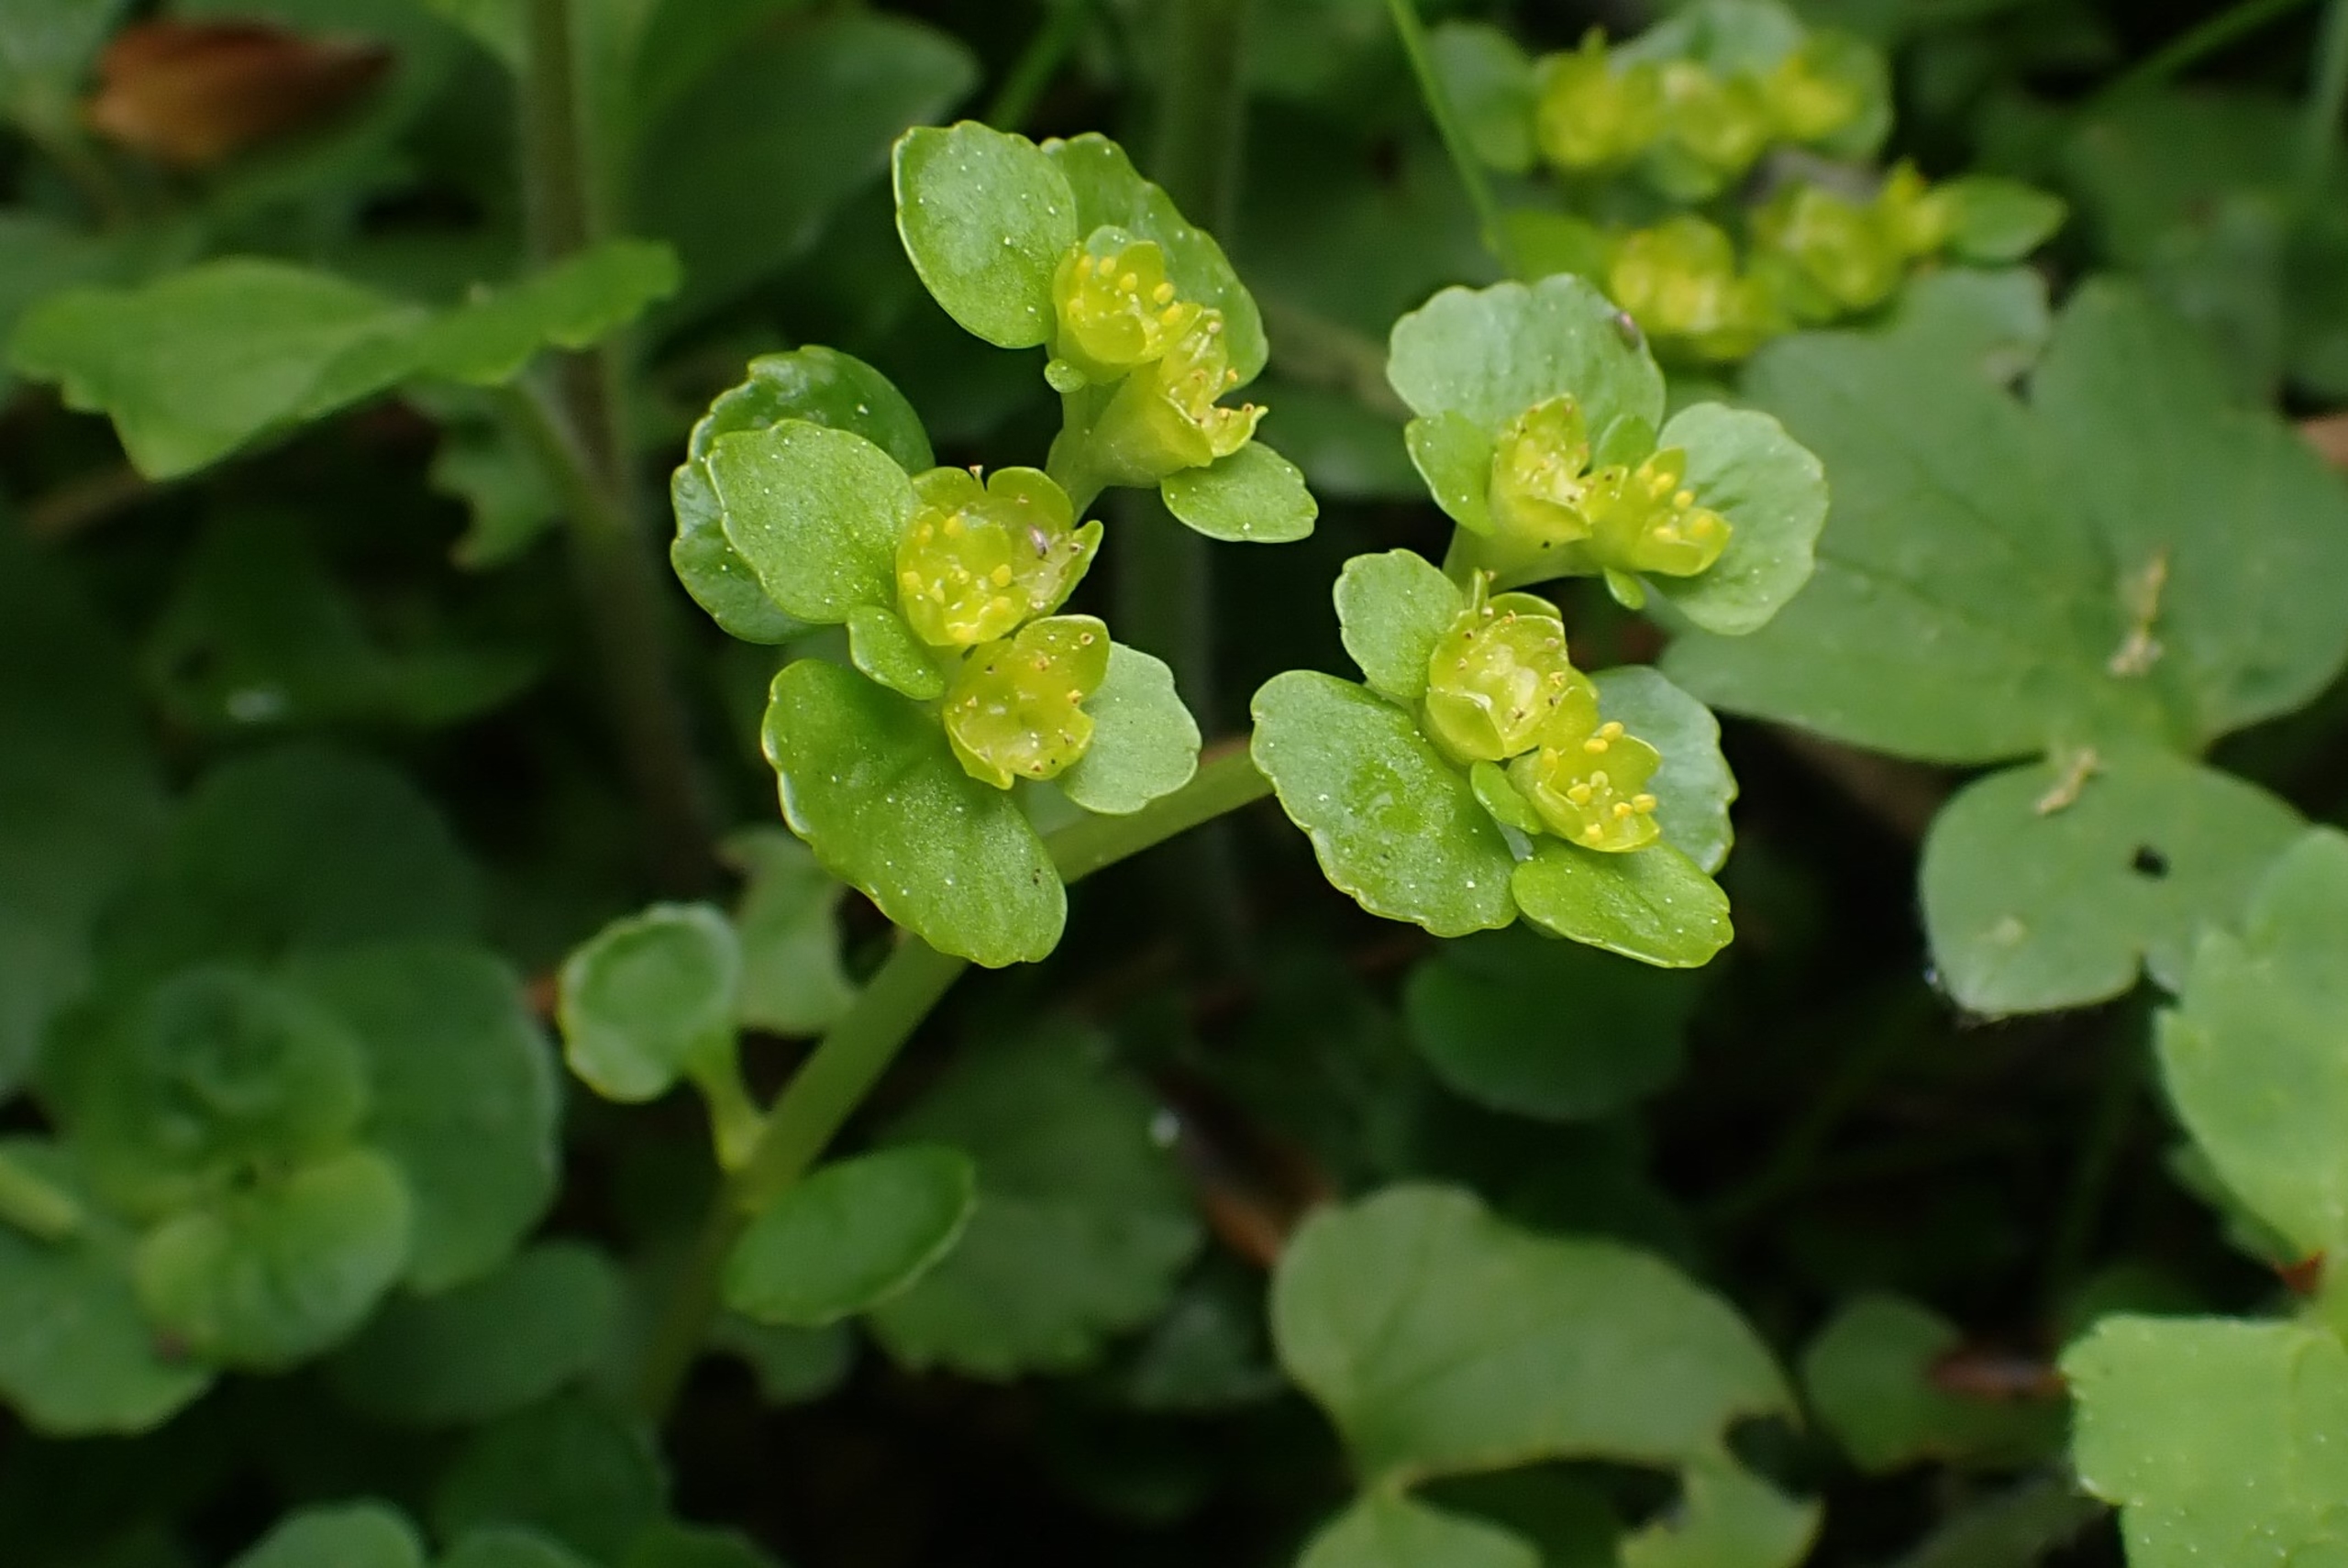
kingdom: Plantae
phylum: Tracheophyta
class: Magnoliopsida
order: Saxifragales
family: Saxifragaceae
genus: Chrysosplenium
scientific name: Chrysosplenium oppositifolium
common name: Småbladet milturt
